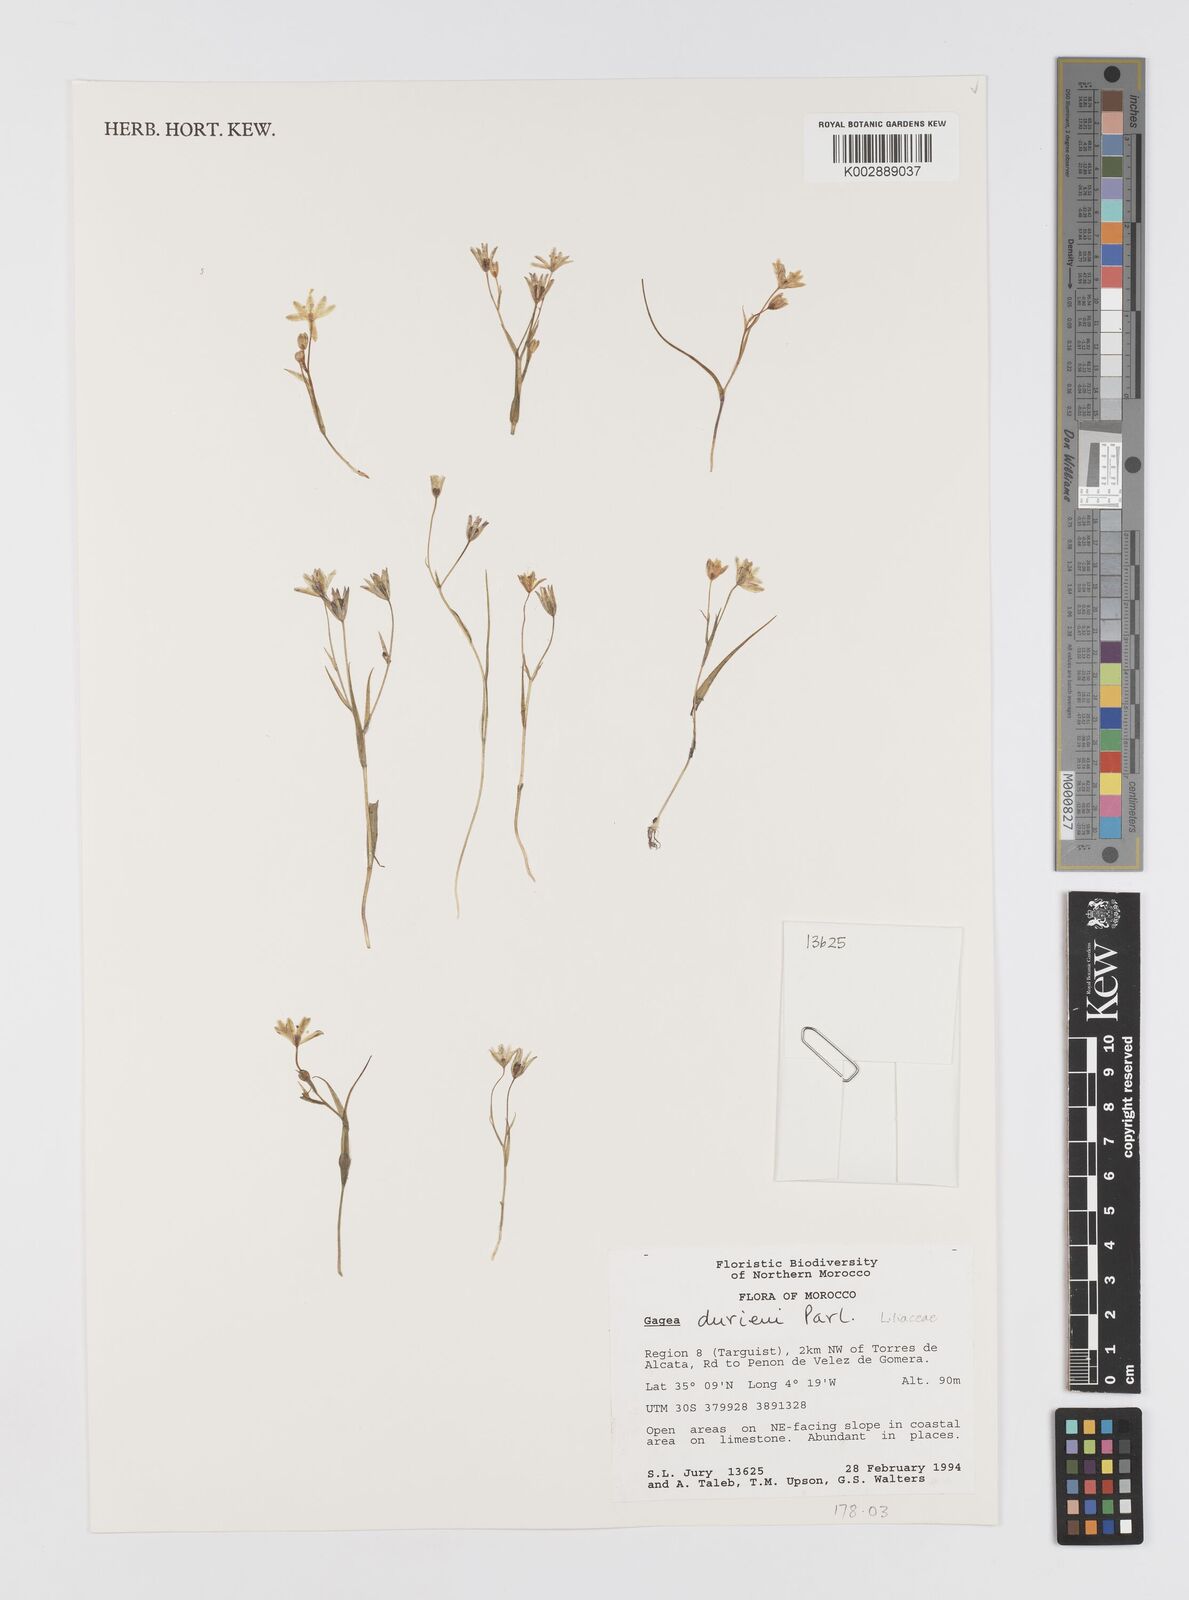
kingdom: Plantae
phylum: Tracheophyta
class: Liliopsida
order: Liliales
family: Liliaceae
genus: Gagea
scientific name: Gagea durieui
